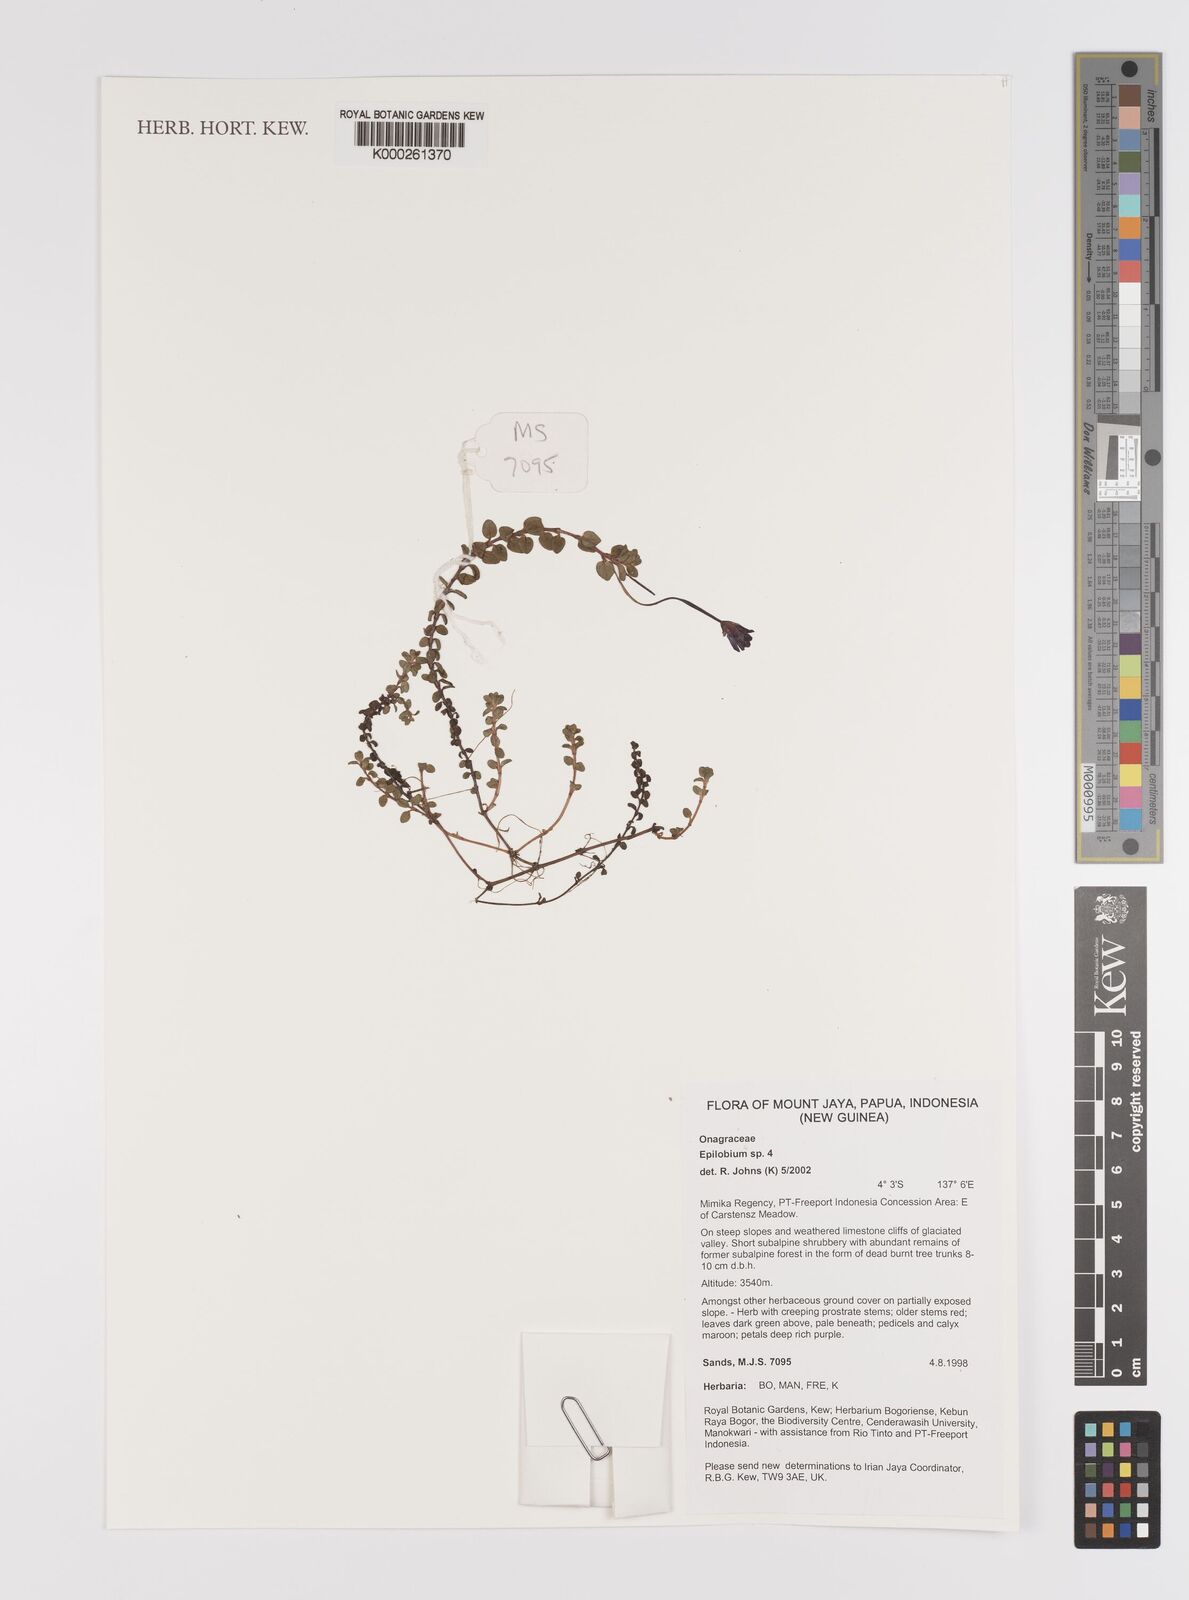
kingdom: Plantae
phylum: Tracheophyta
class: Magnoliopsida
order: Myrtales
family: Onagraceae
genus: Epilobium
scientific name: Epilobium
